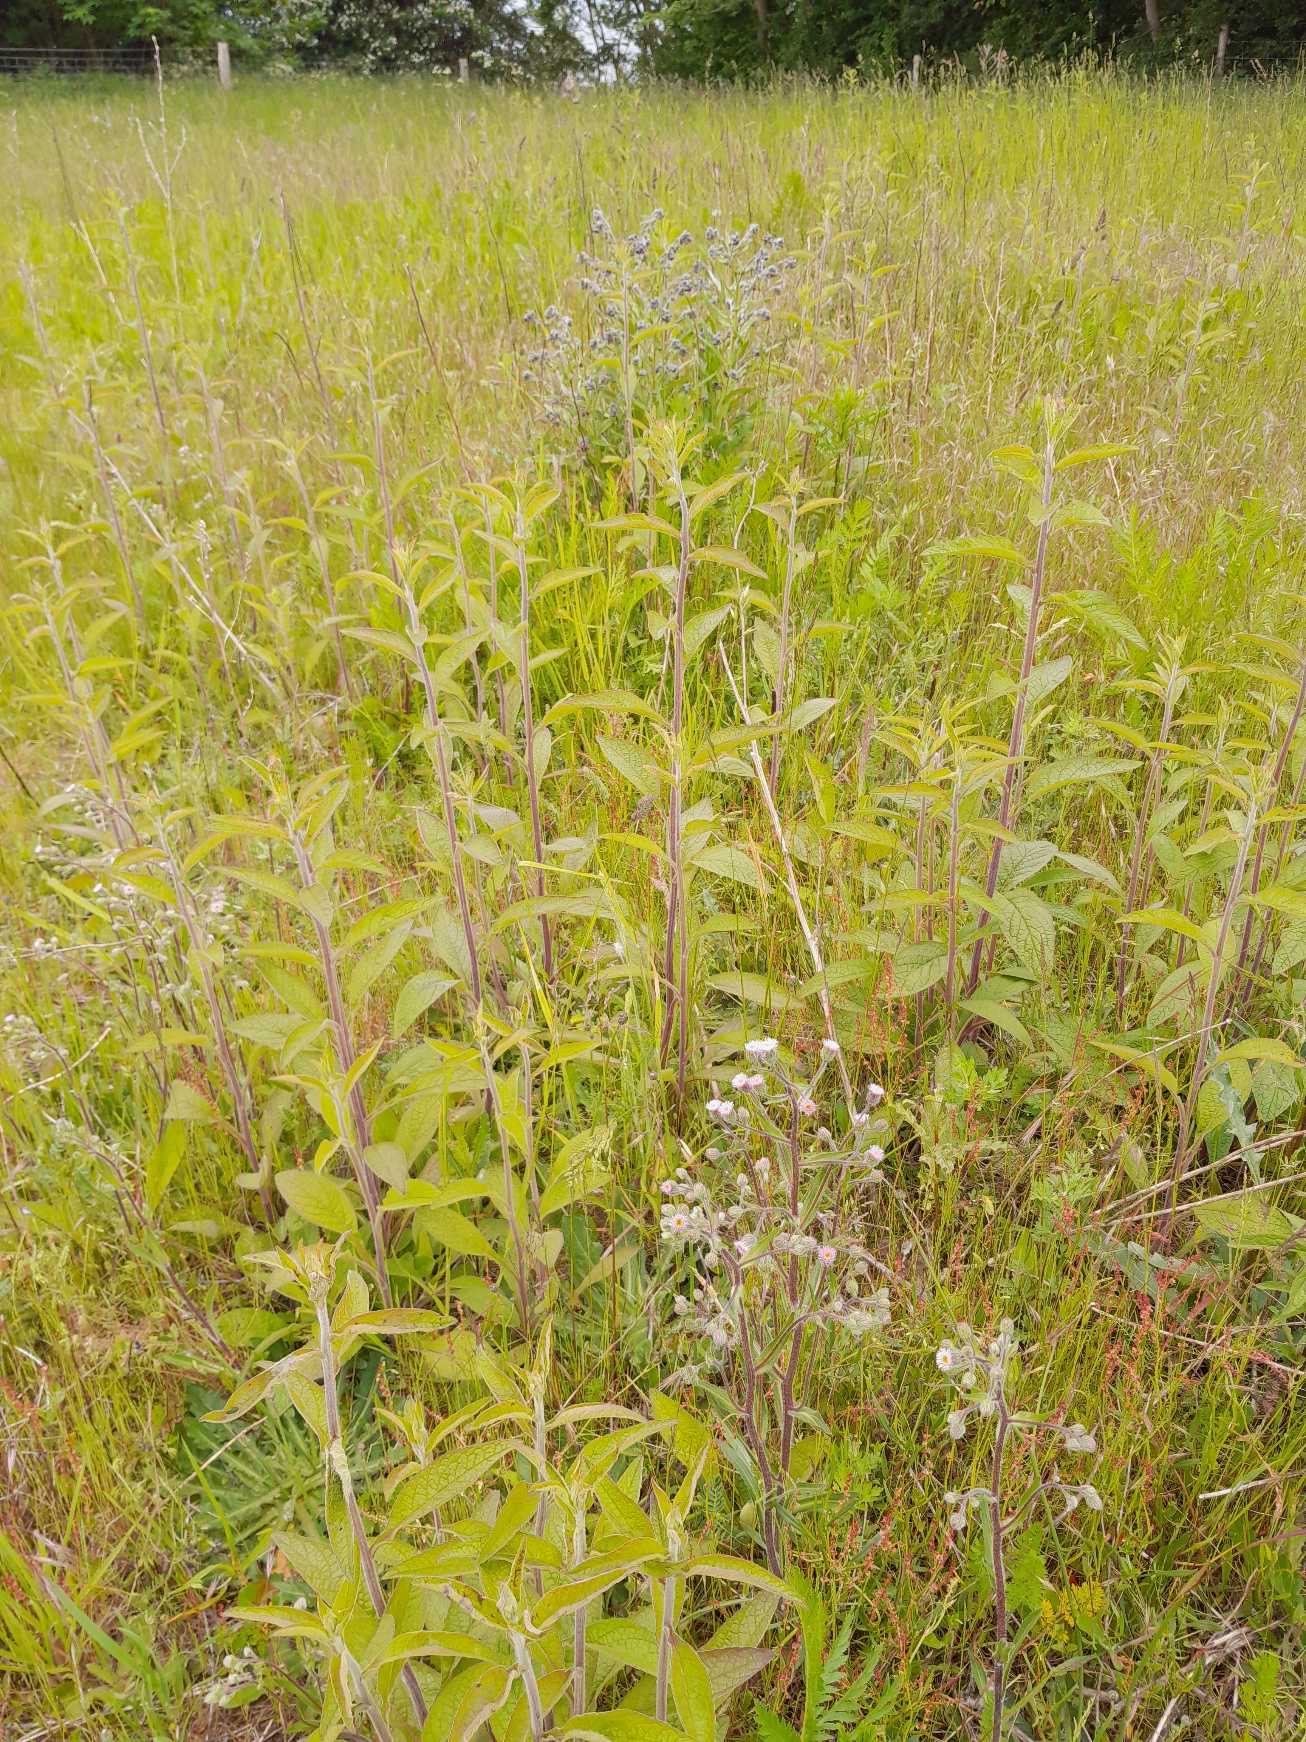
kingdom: Plantae
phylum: Tracheophyta
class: Magnoliopsida
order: Asterales
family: Asteraceae
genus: Pentanema
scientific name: Pentanema squarrosum
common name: Trekløft-alant
